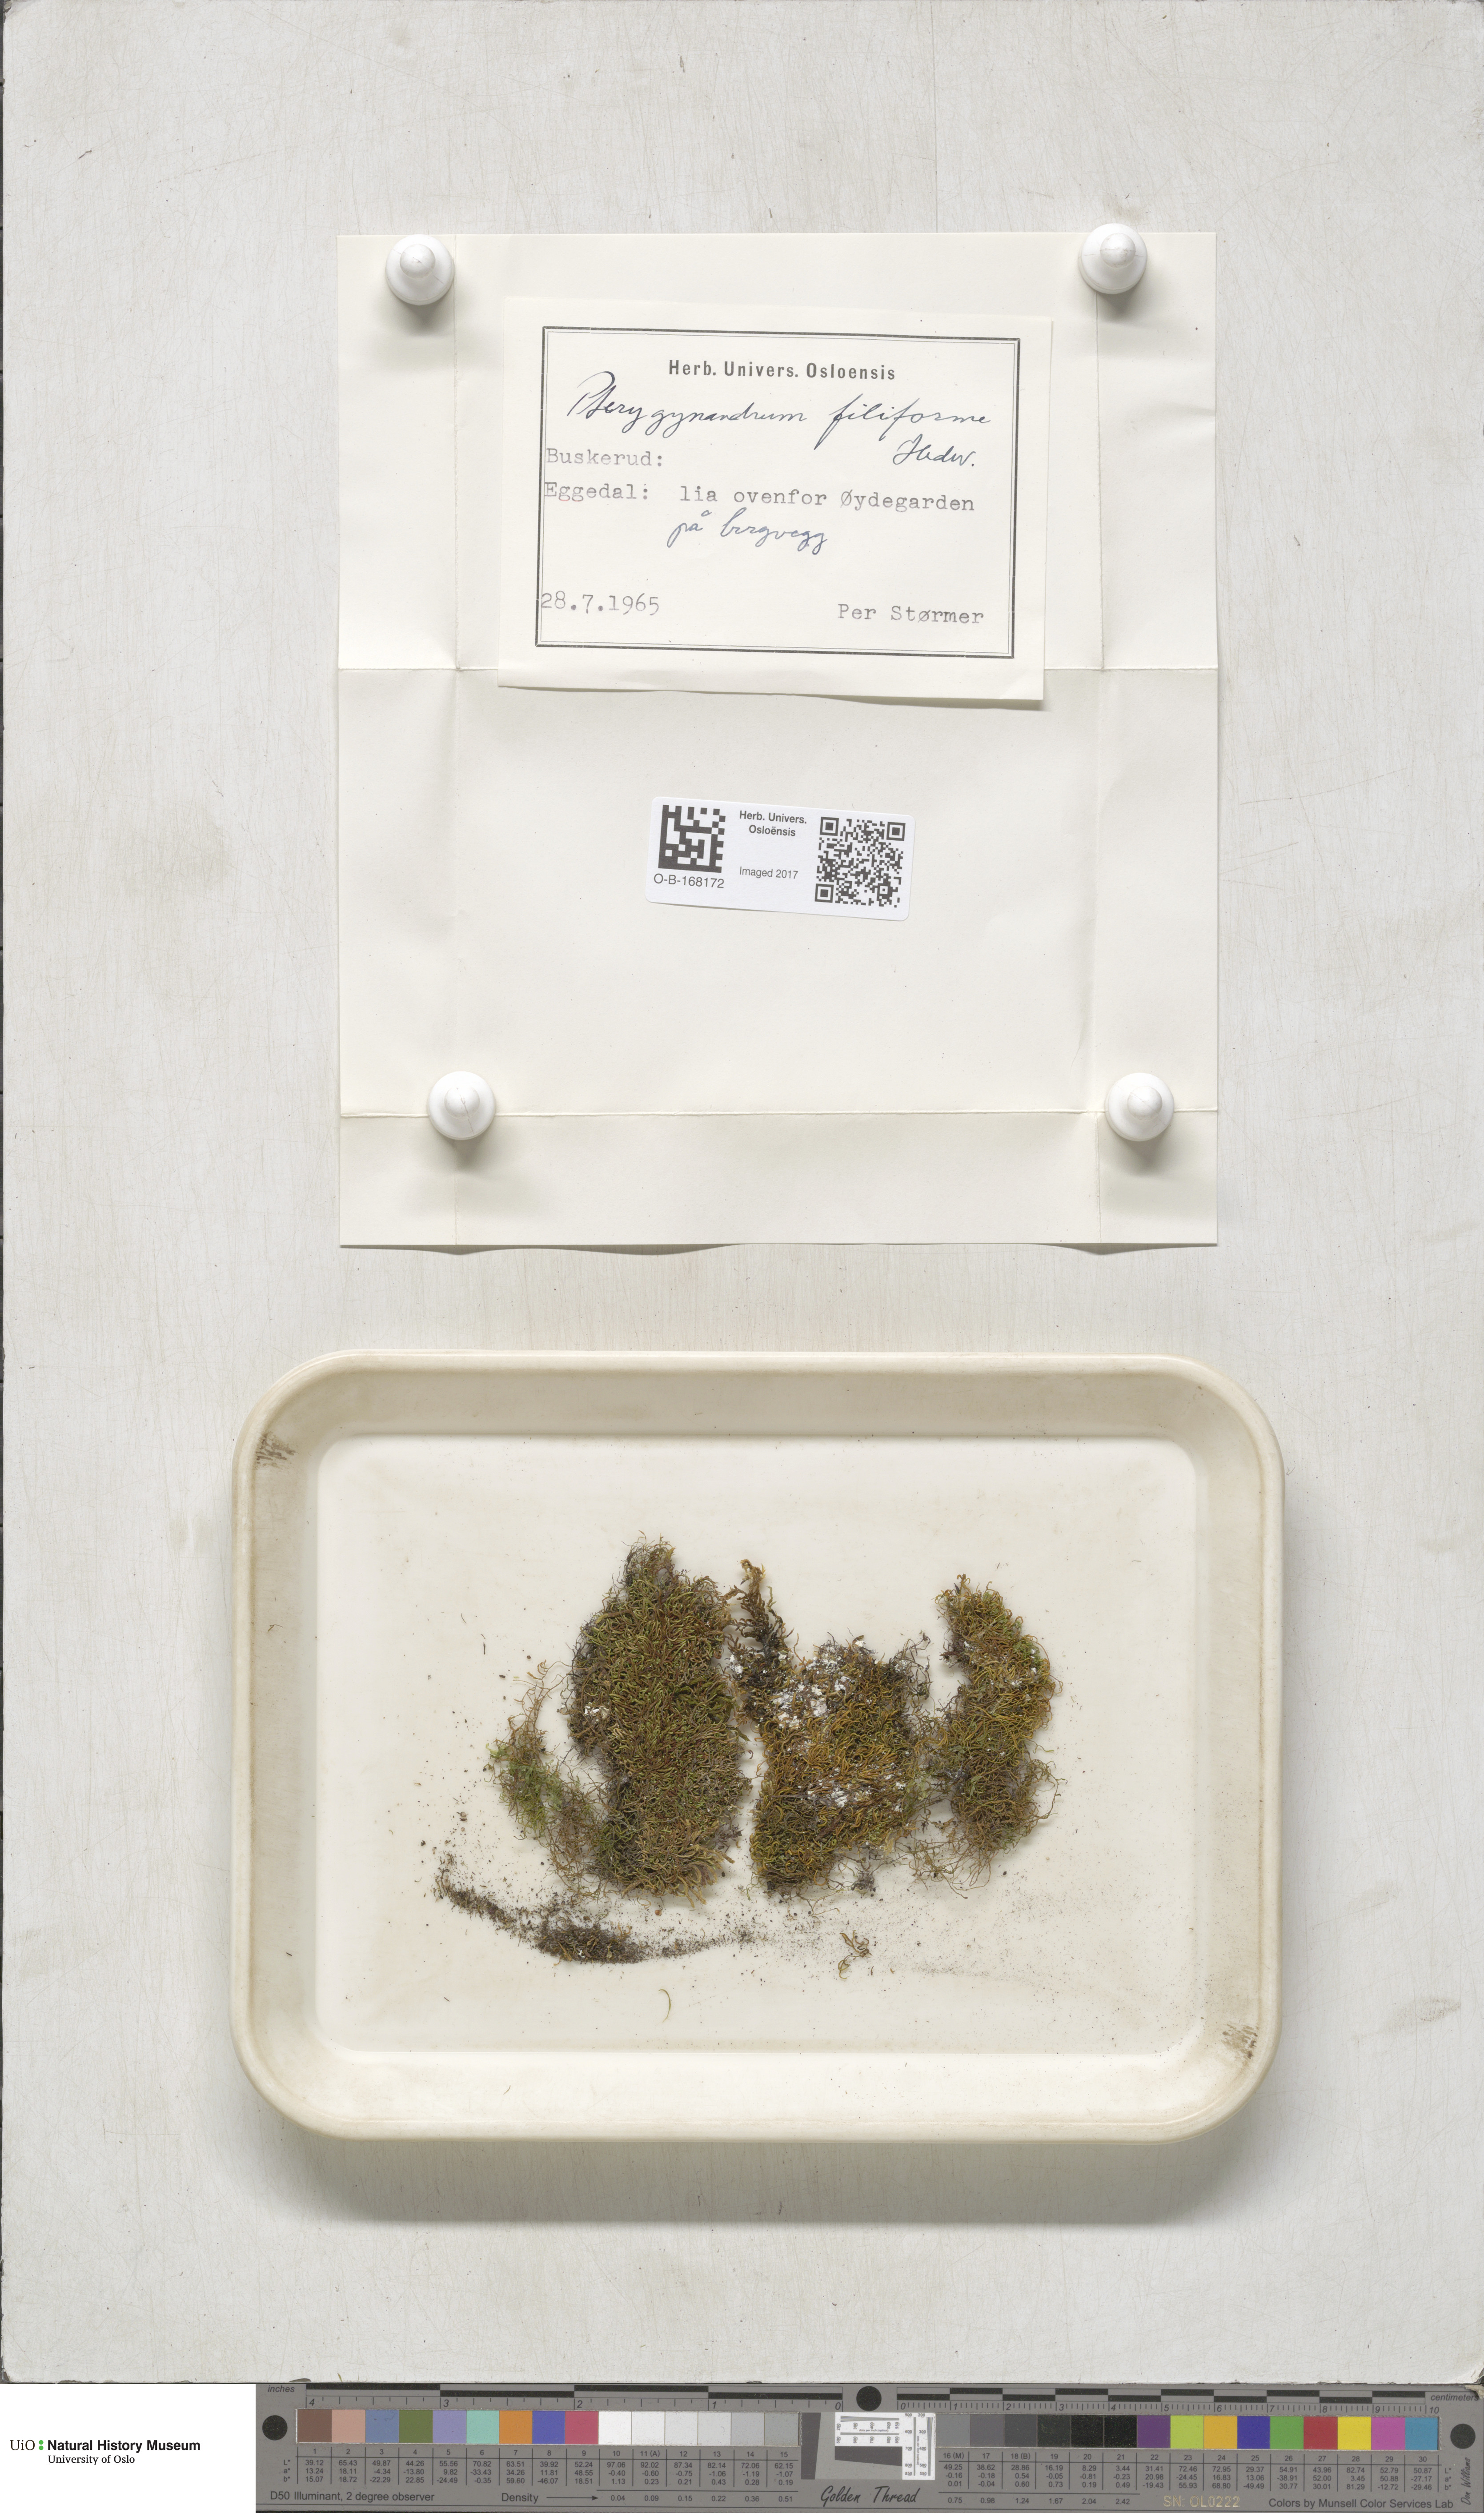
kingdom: Plantae
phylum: Bryophyta
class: Bryopsida
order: Hypnales
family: Pterigynandraceae
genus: Pterigynandrum
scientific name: Pterigynandrum filiforme
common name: Capillary wing moss
